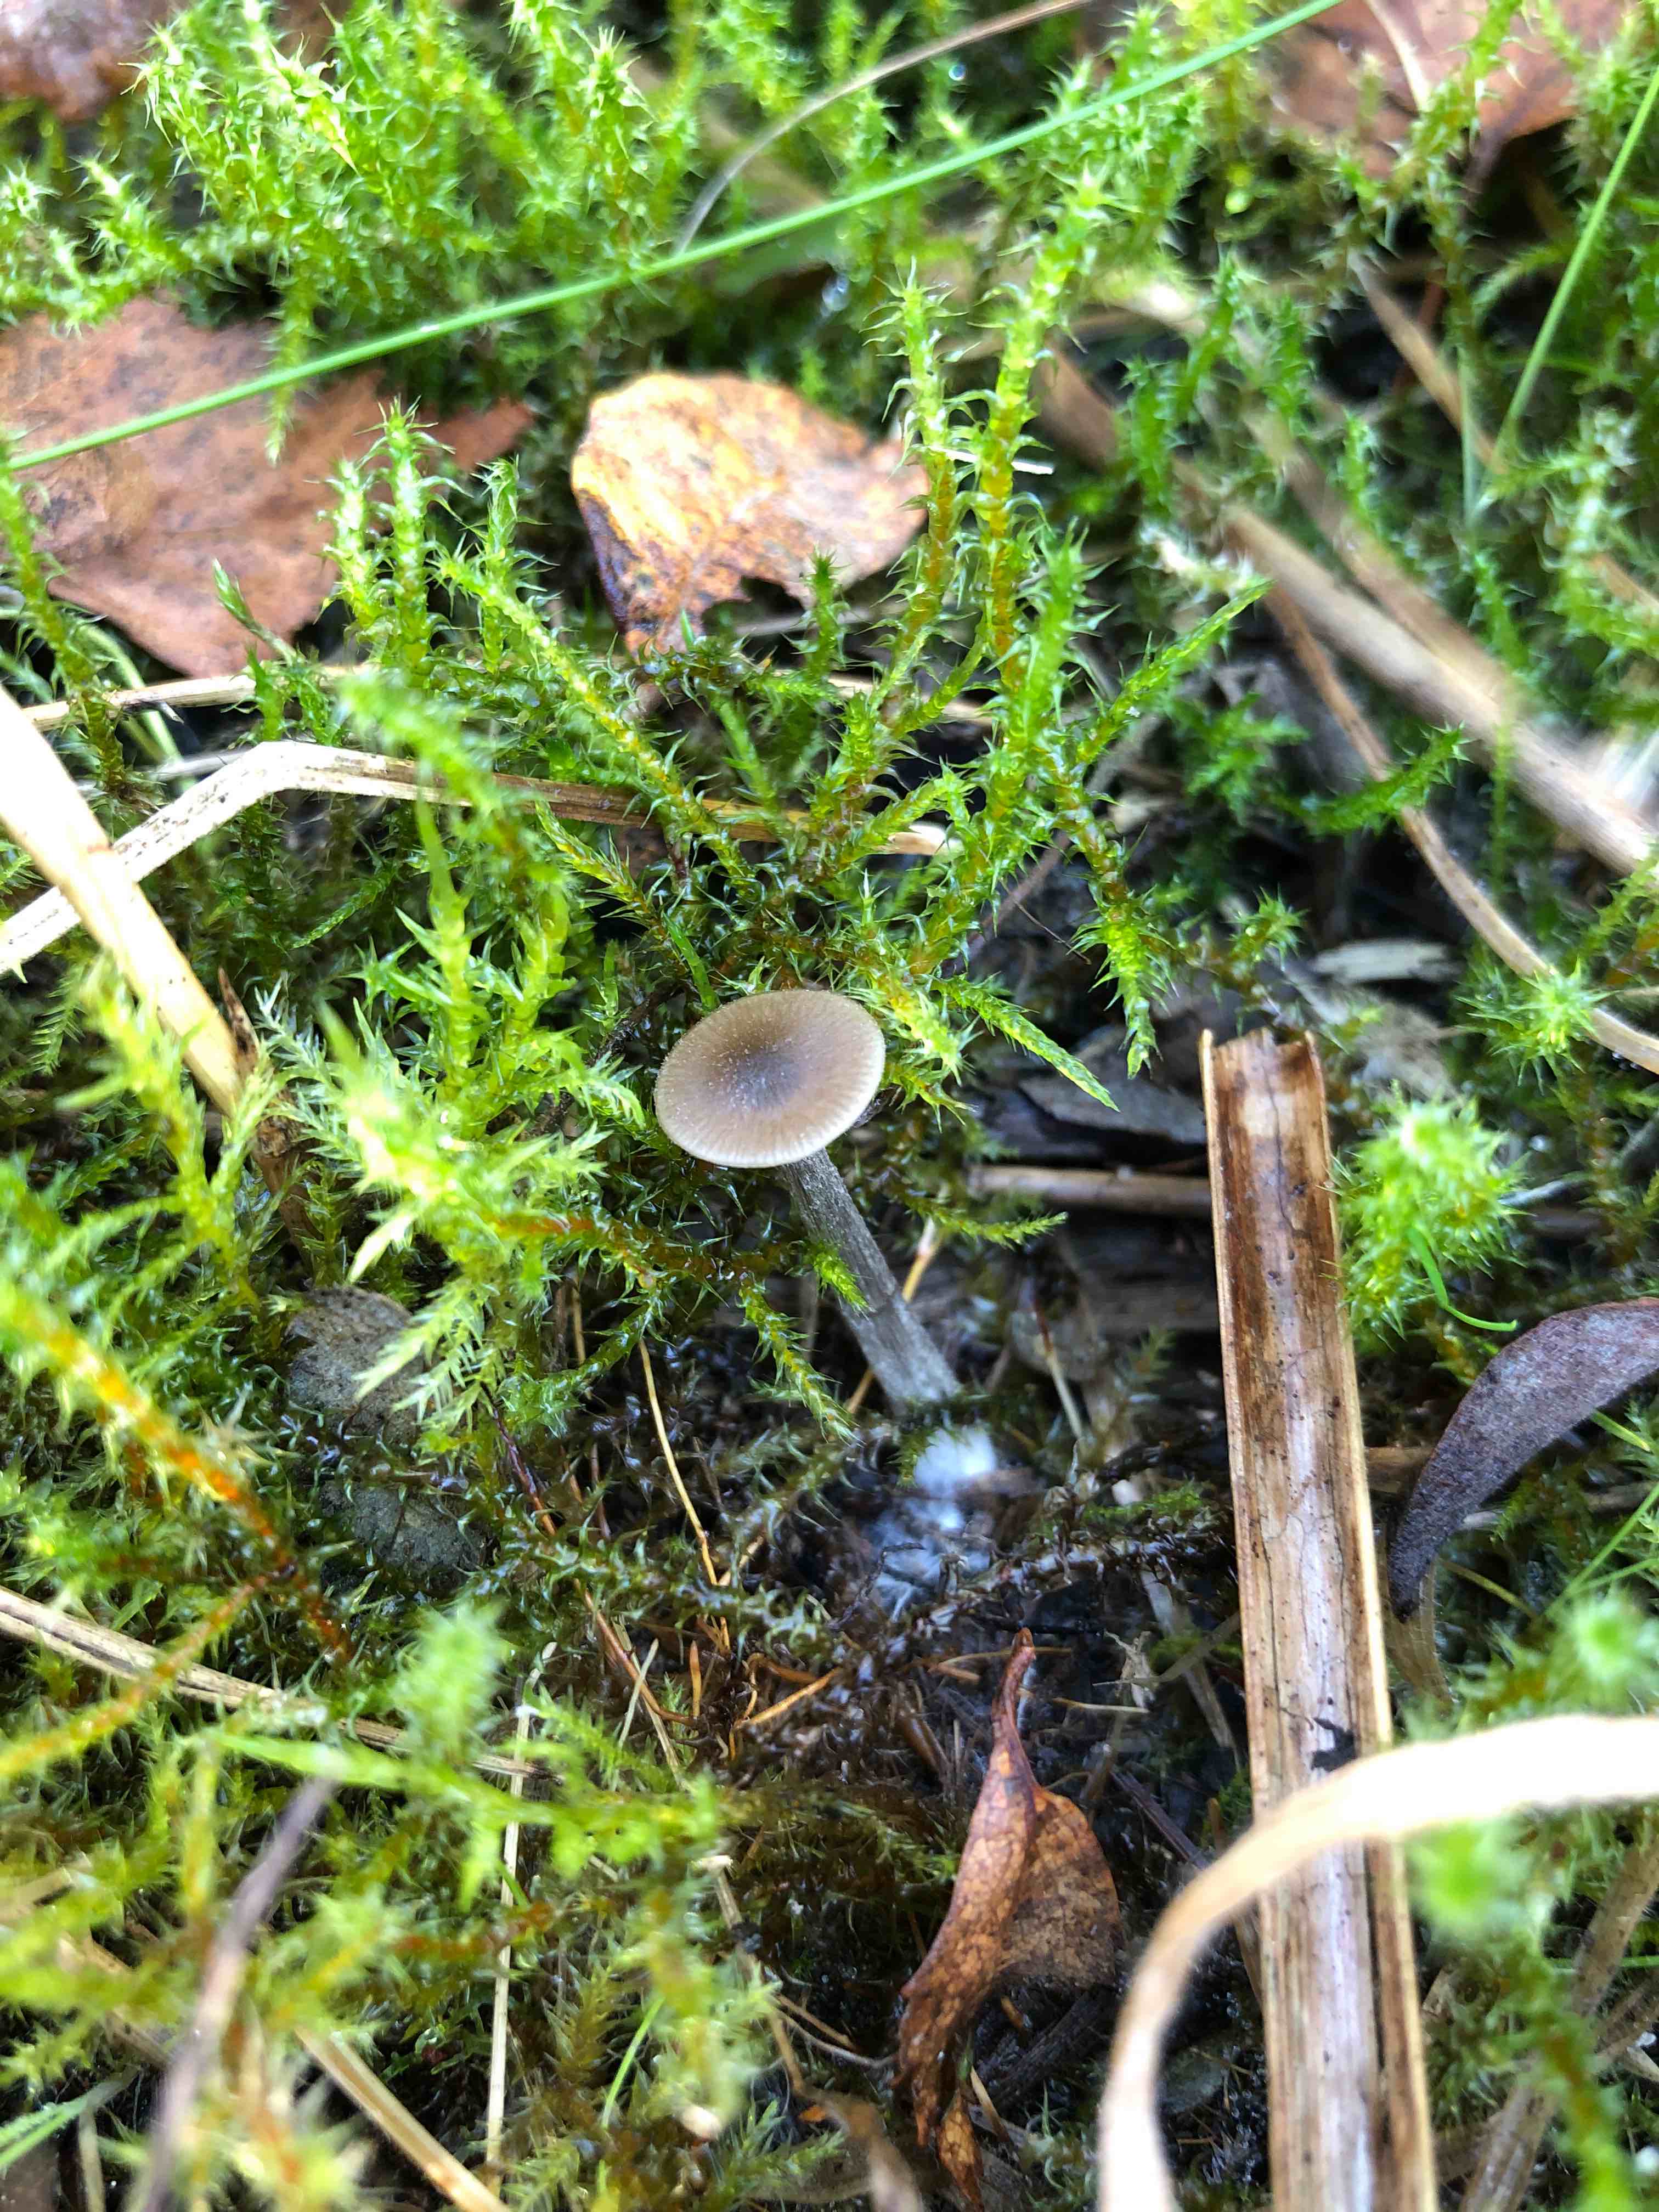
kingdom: Fungi
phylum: Basidiomycota
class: Agaricomycetes
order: Agaricales
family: Entolomataceae
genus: Entoloma
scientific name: Entoloma
